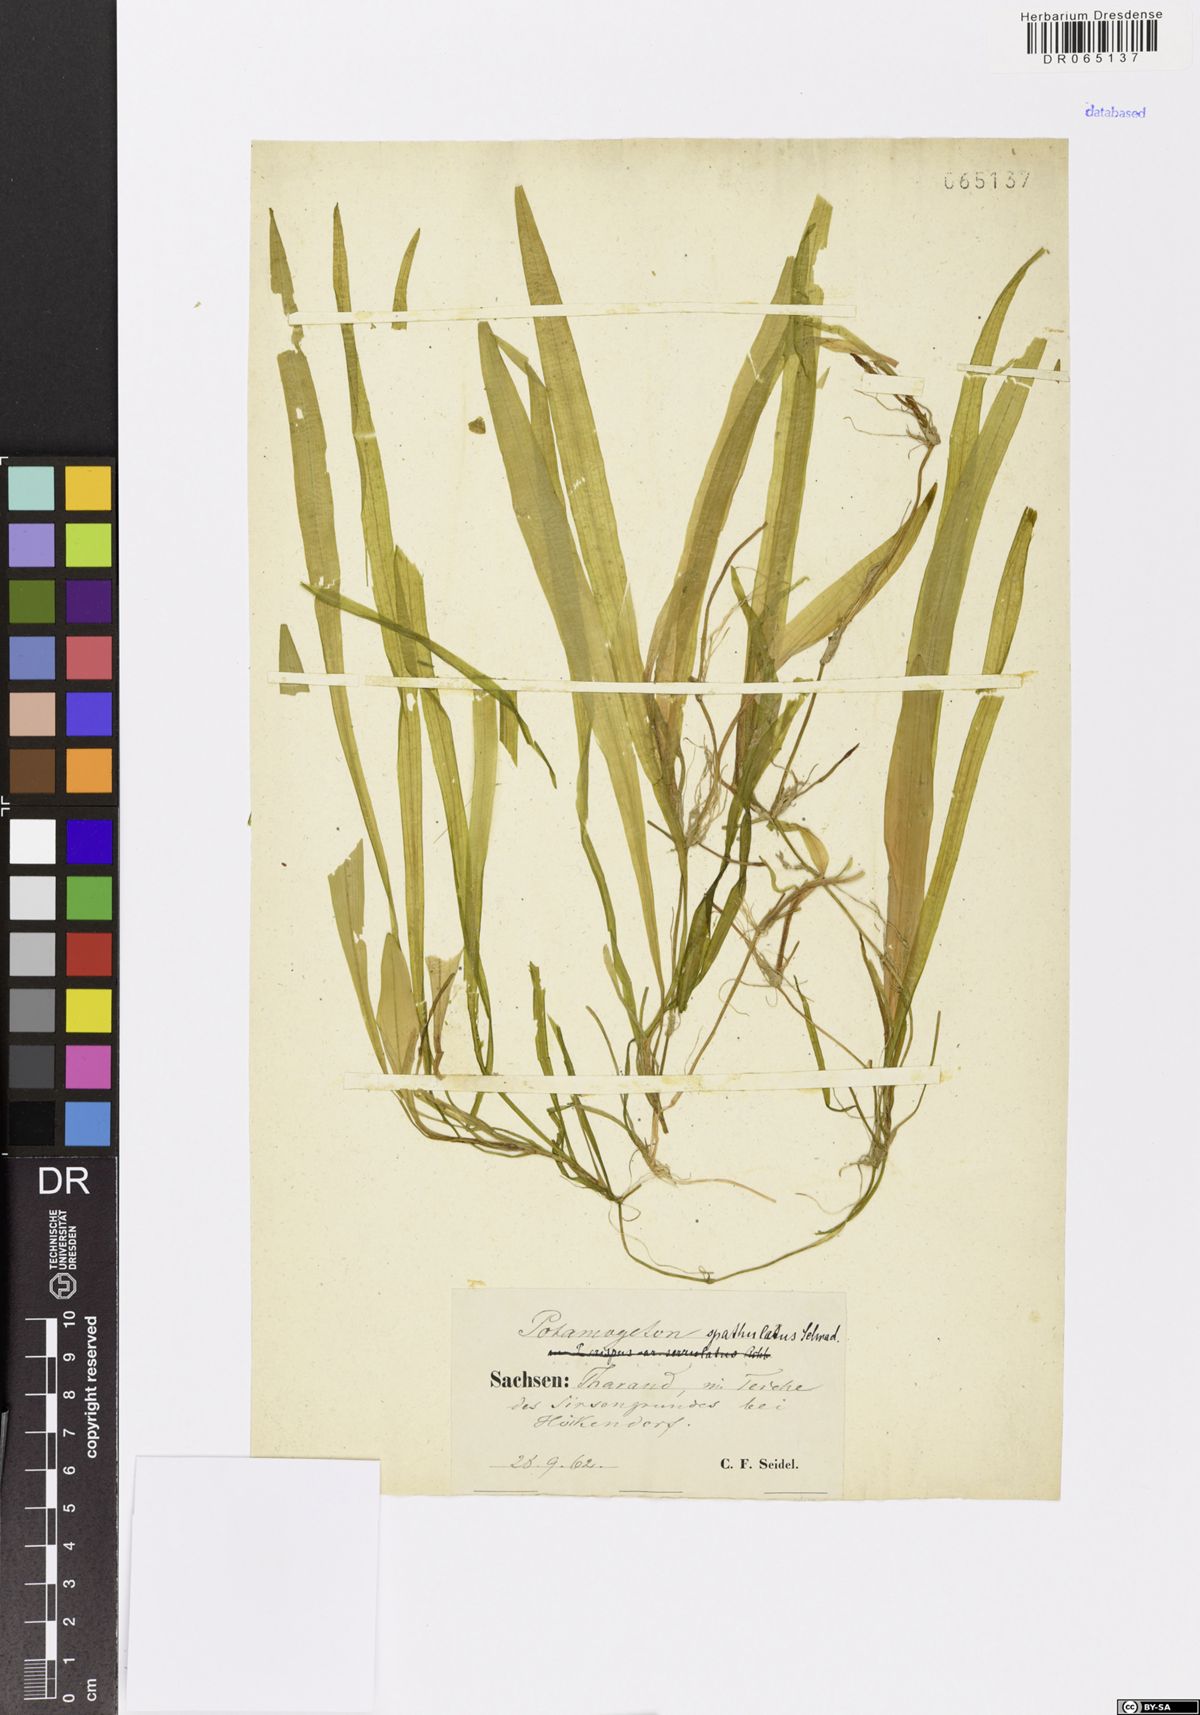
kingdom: Plantae
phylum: Tracheophyta
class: Liliopsida
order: Alismatales
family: Potamogetonaceae
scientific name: Potamogetonaceae
